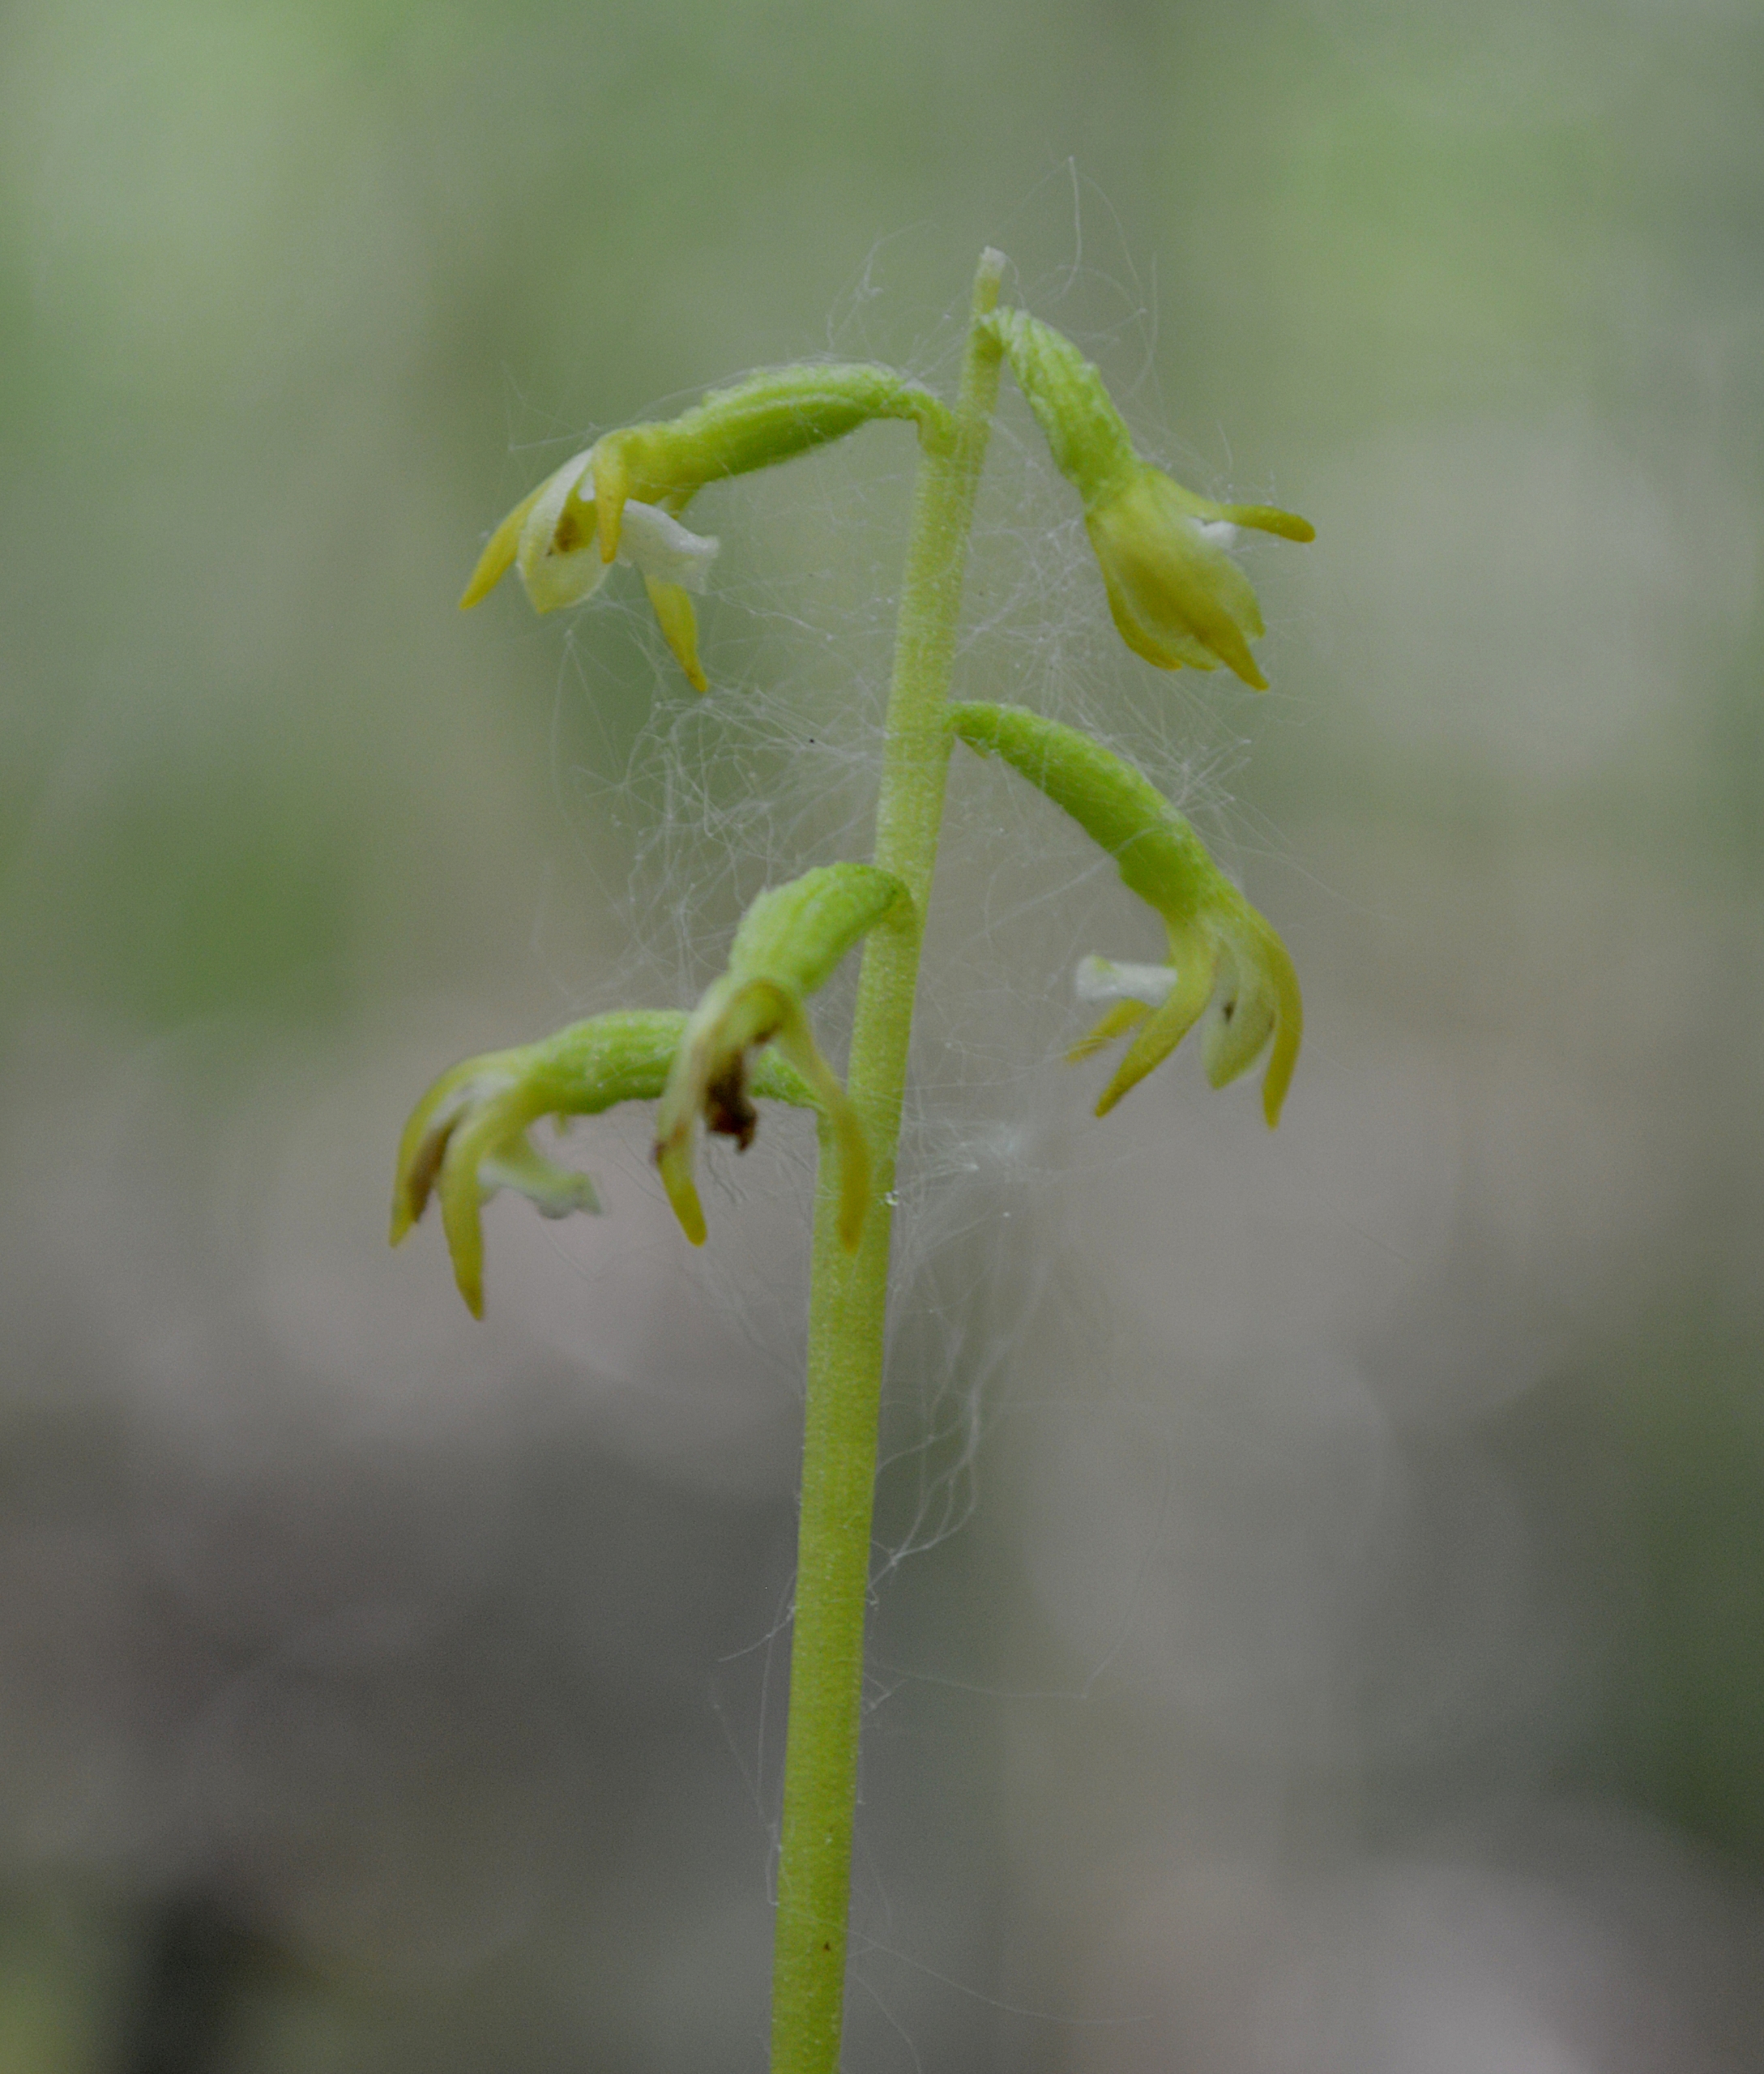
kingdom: Plantae
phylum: Tracheophyta
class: Liliopsida
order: Asparagales
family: Orchidaceae
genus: Corallorhiza
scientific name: Corallorhiza trifida
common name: Koralrod
